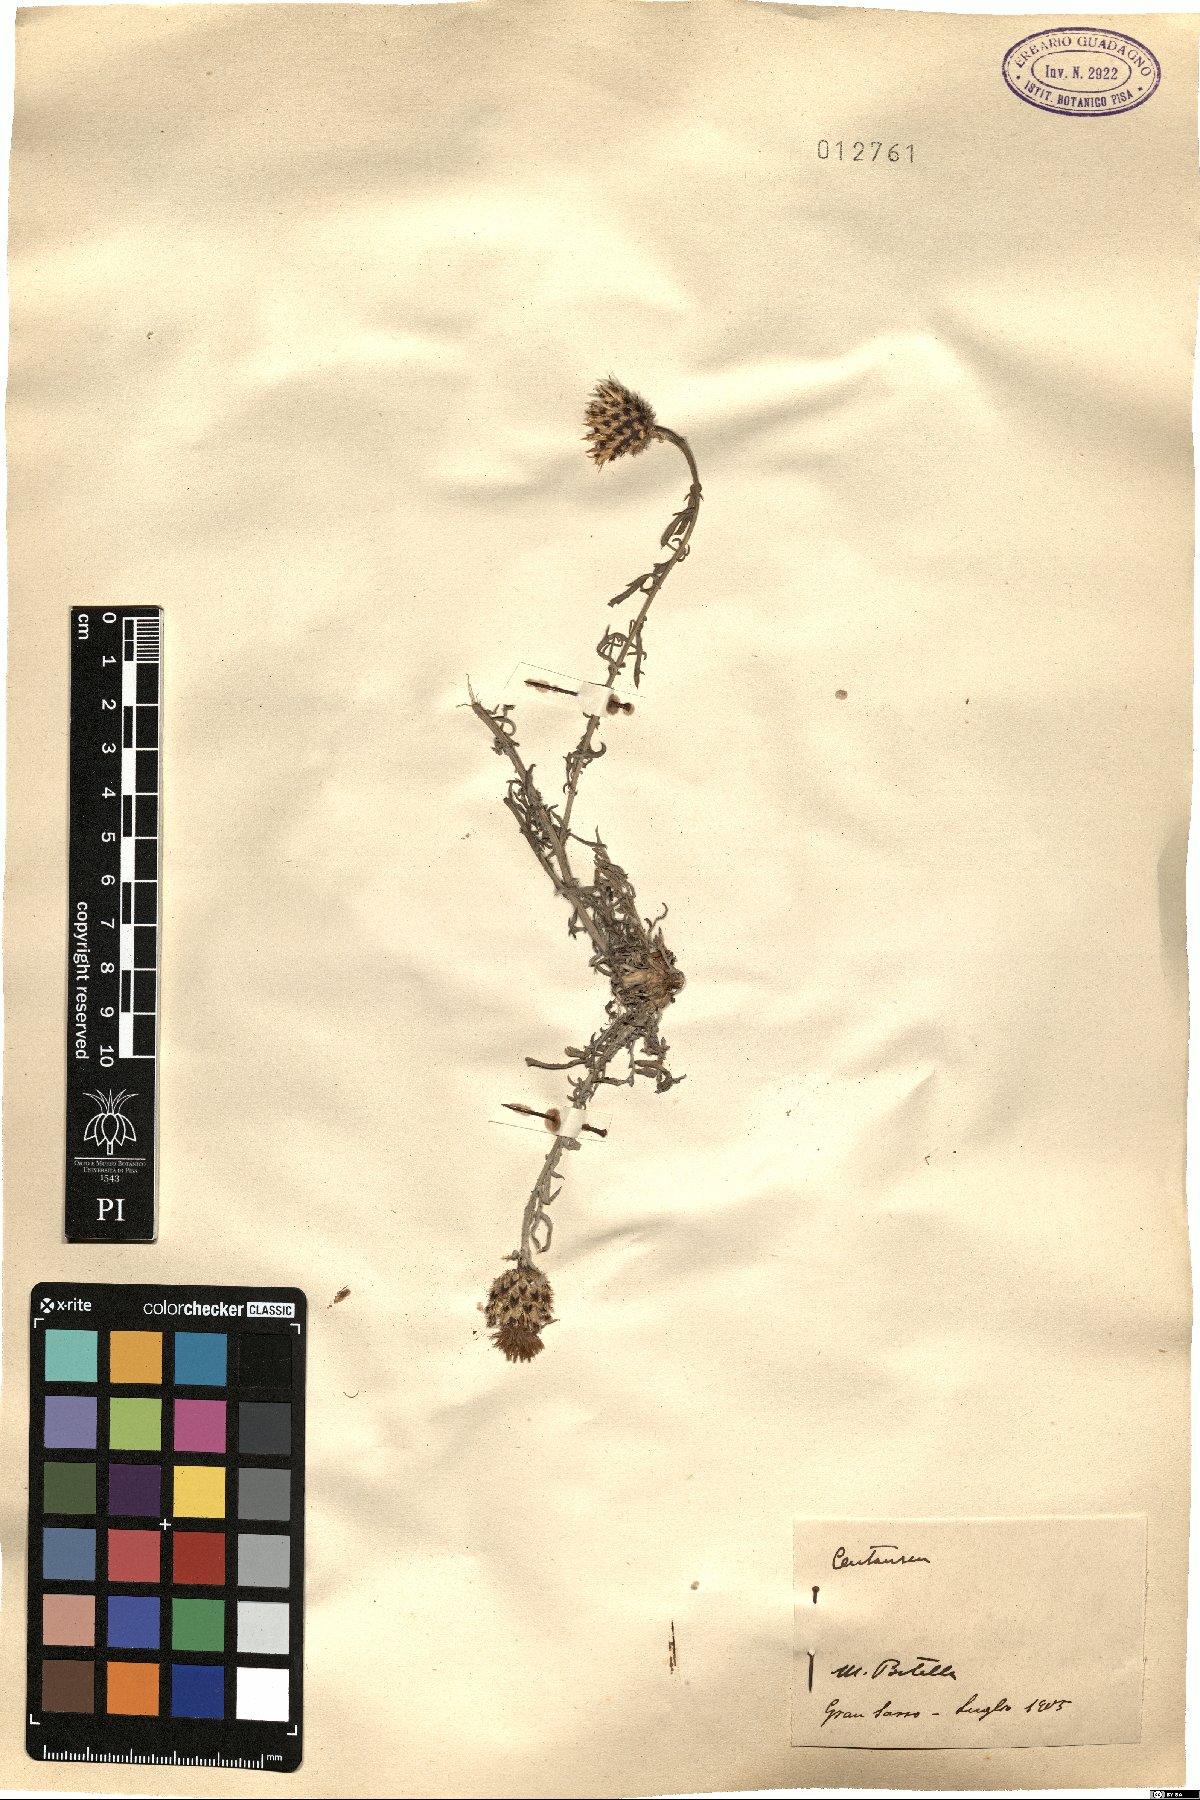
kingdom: Plantae
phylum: Tracheophyta
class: Magnoliopsida
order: Asterales
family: Asteraceae
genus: Centaurea
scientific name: Centaurea
